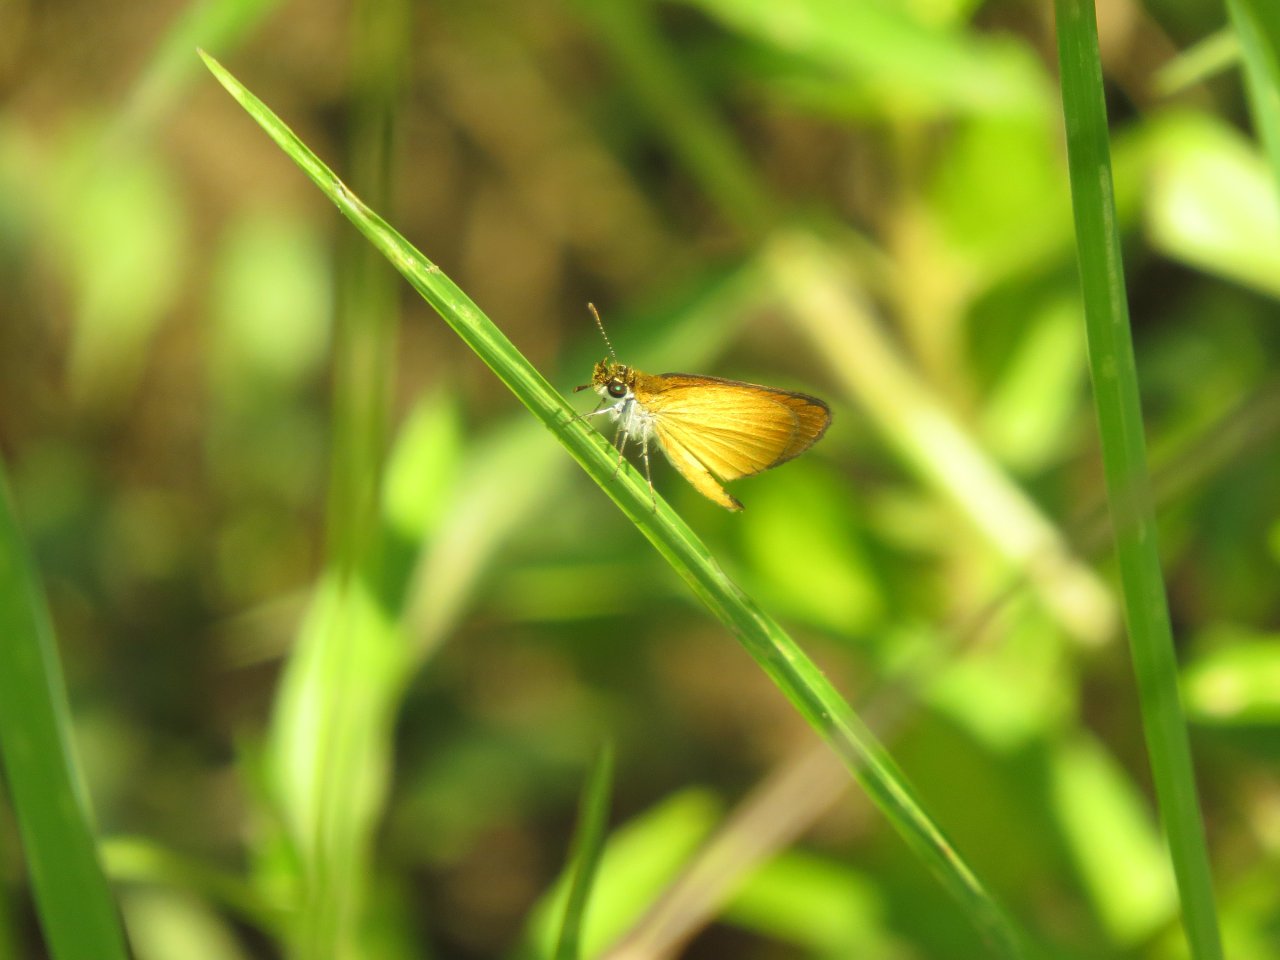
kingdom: Animalia
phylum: Arthropoda
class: Insecta
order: Lepidoptera
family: Hesperiidae
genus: Ancyloxypha
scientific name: Ancyloxypha numitor
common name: Least Skipper
